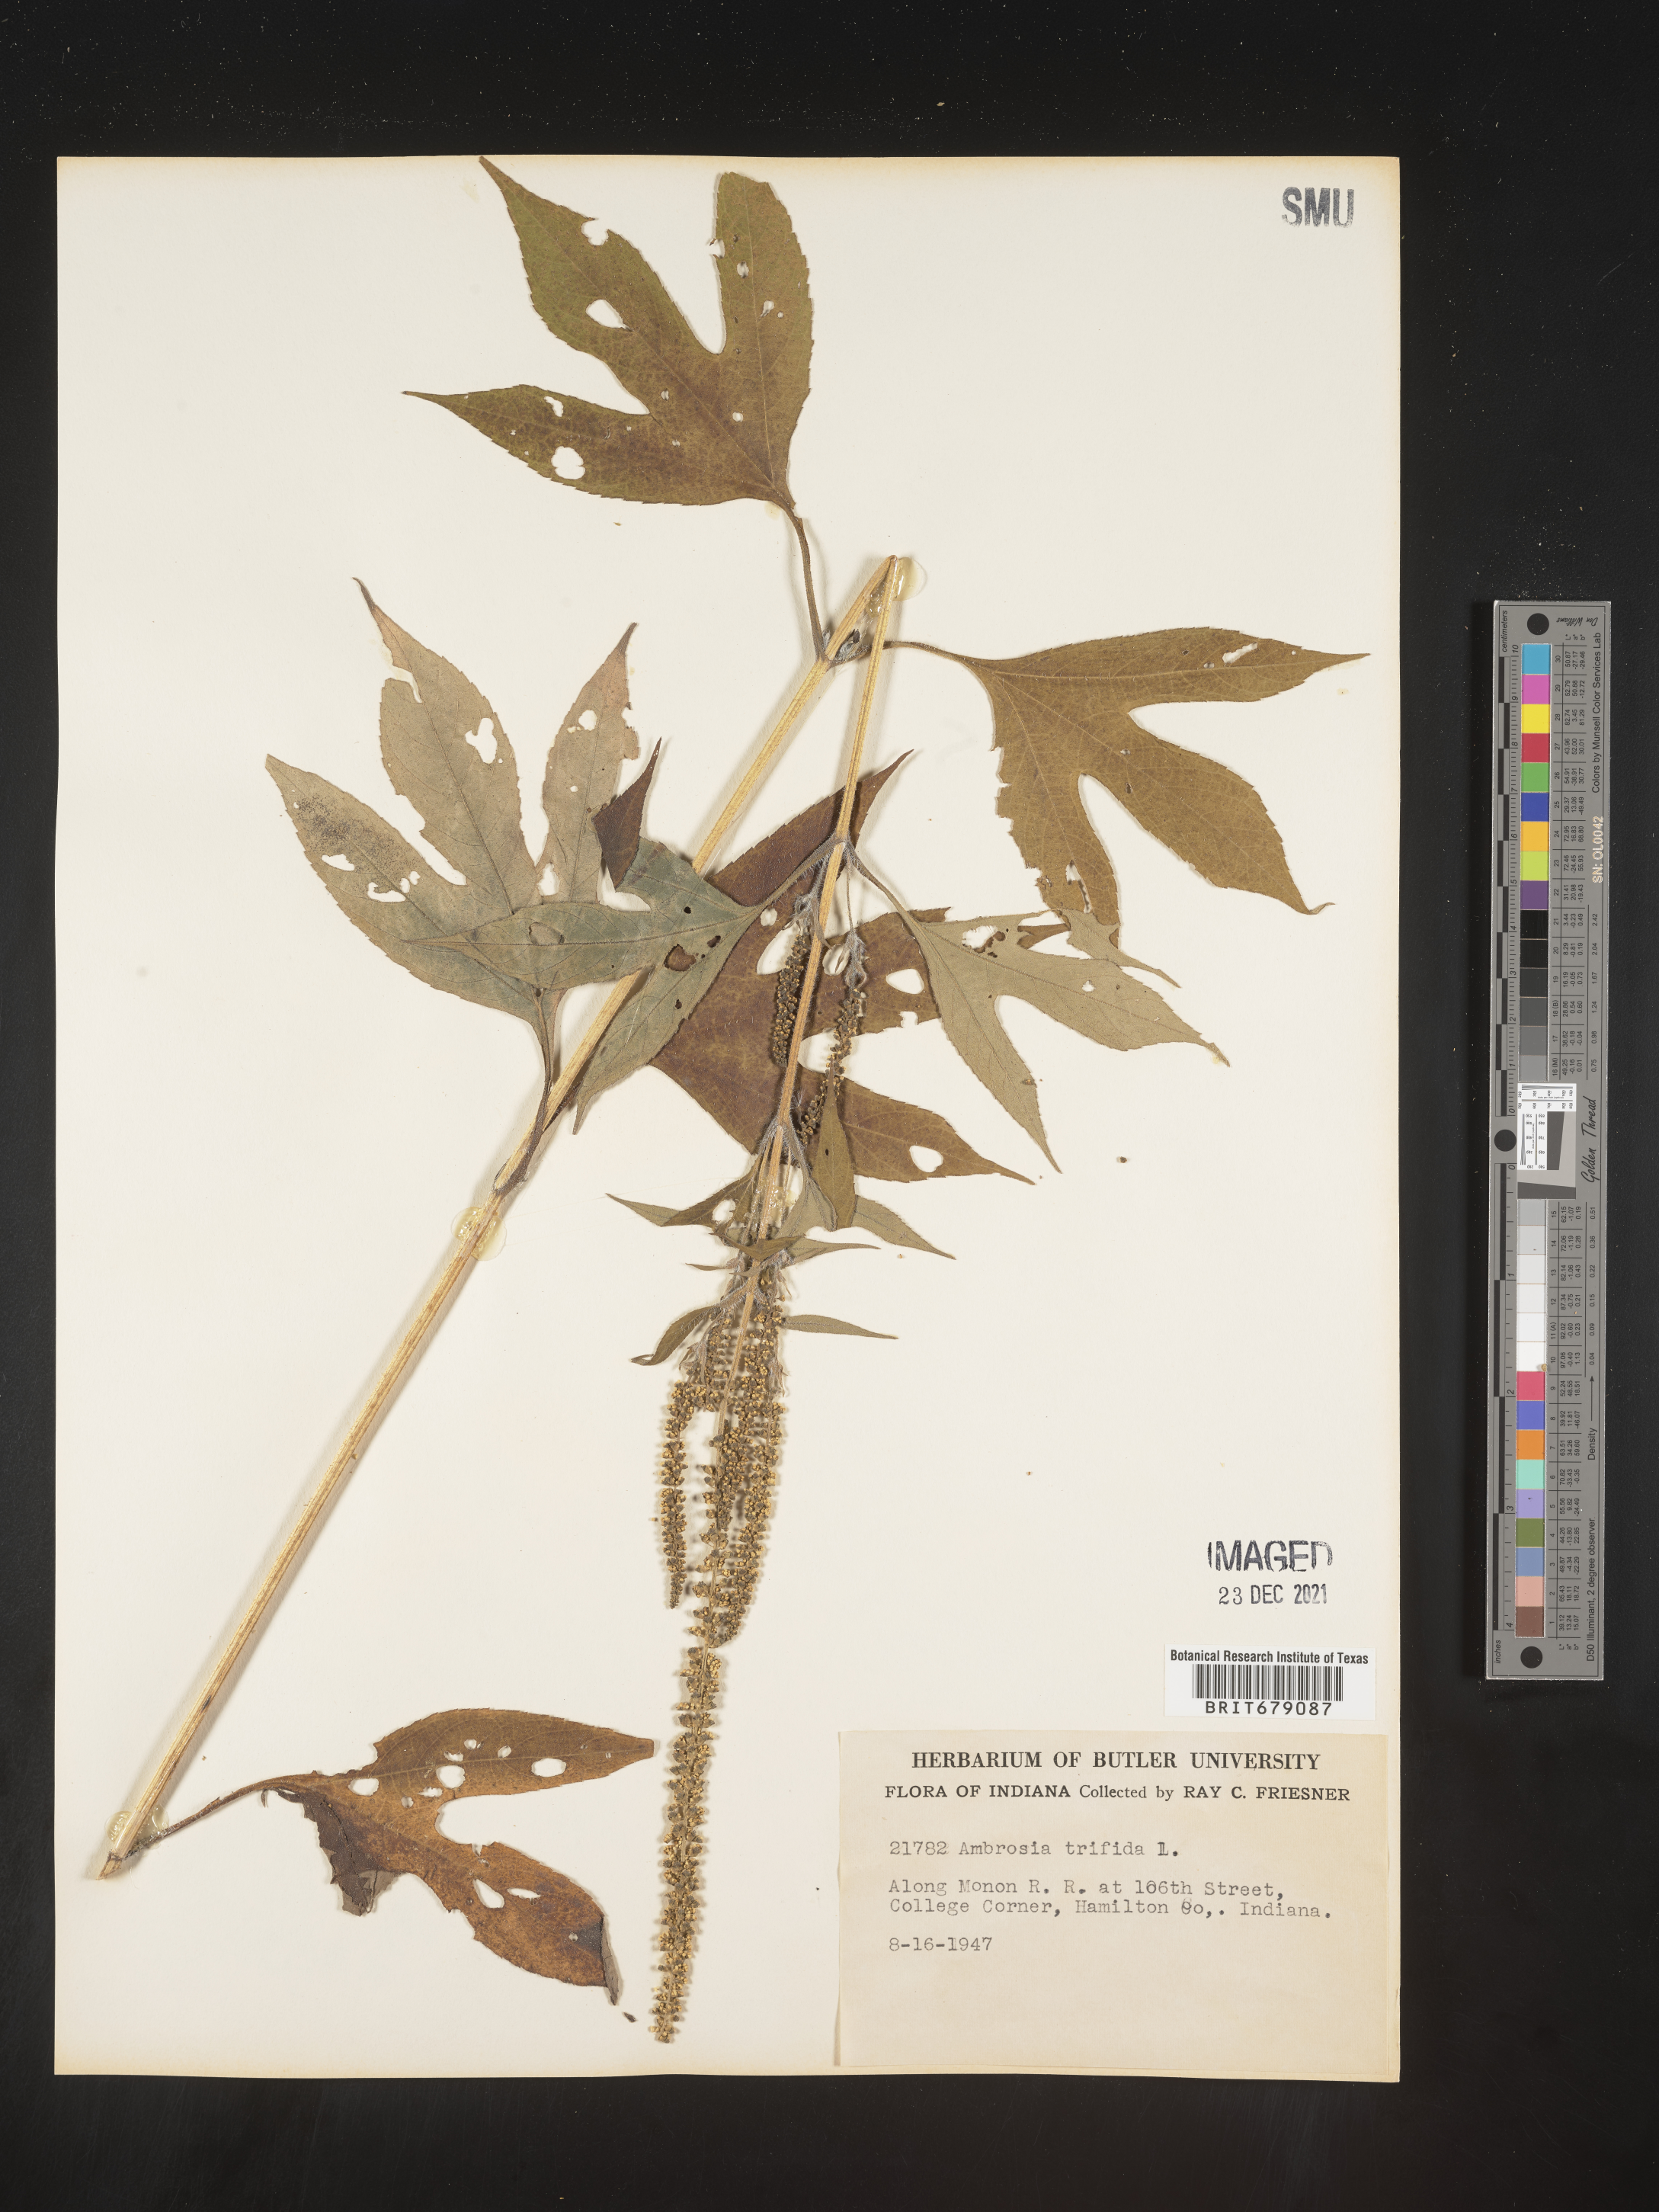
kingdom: Plantae
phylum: Tracheophyta
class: Magnoliopsida
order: Asterales
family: Asteraceae
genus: Ambrosia
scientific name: Ambrosia trifida
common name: Giant ragweed
